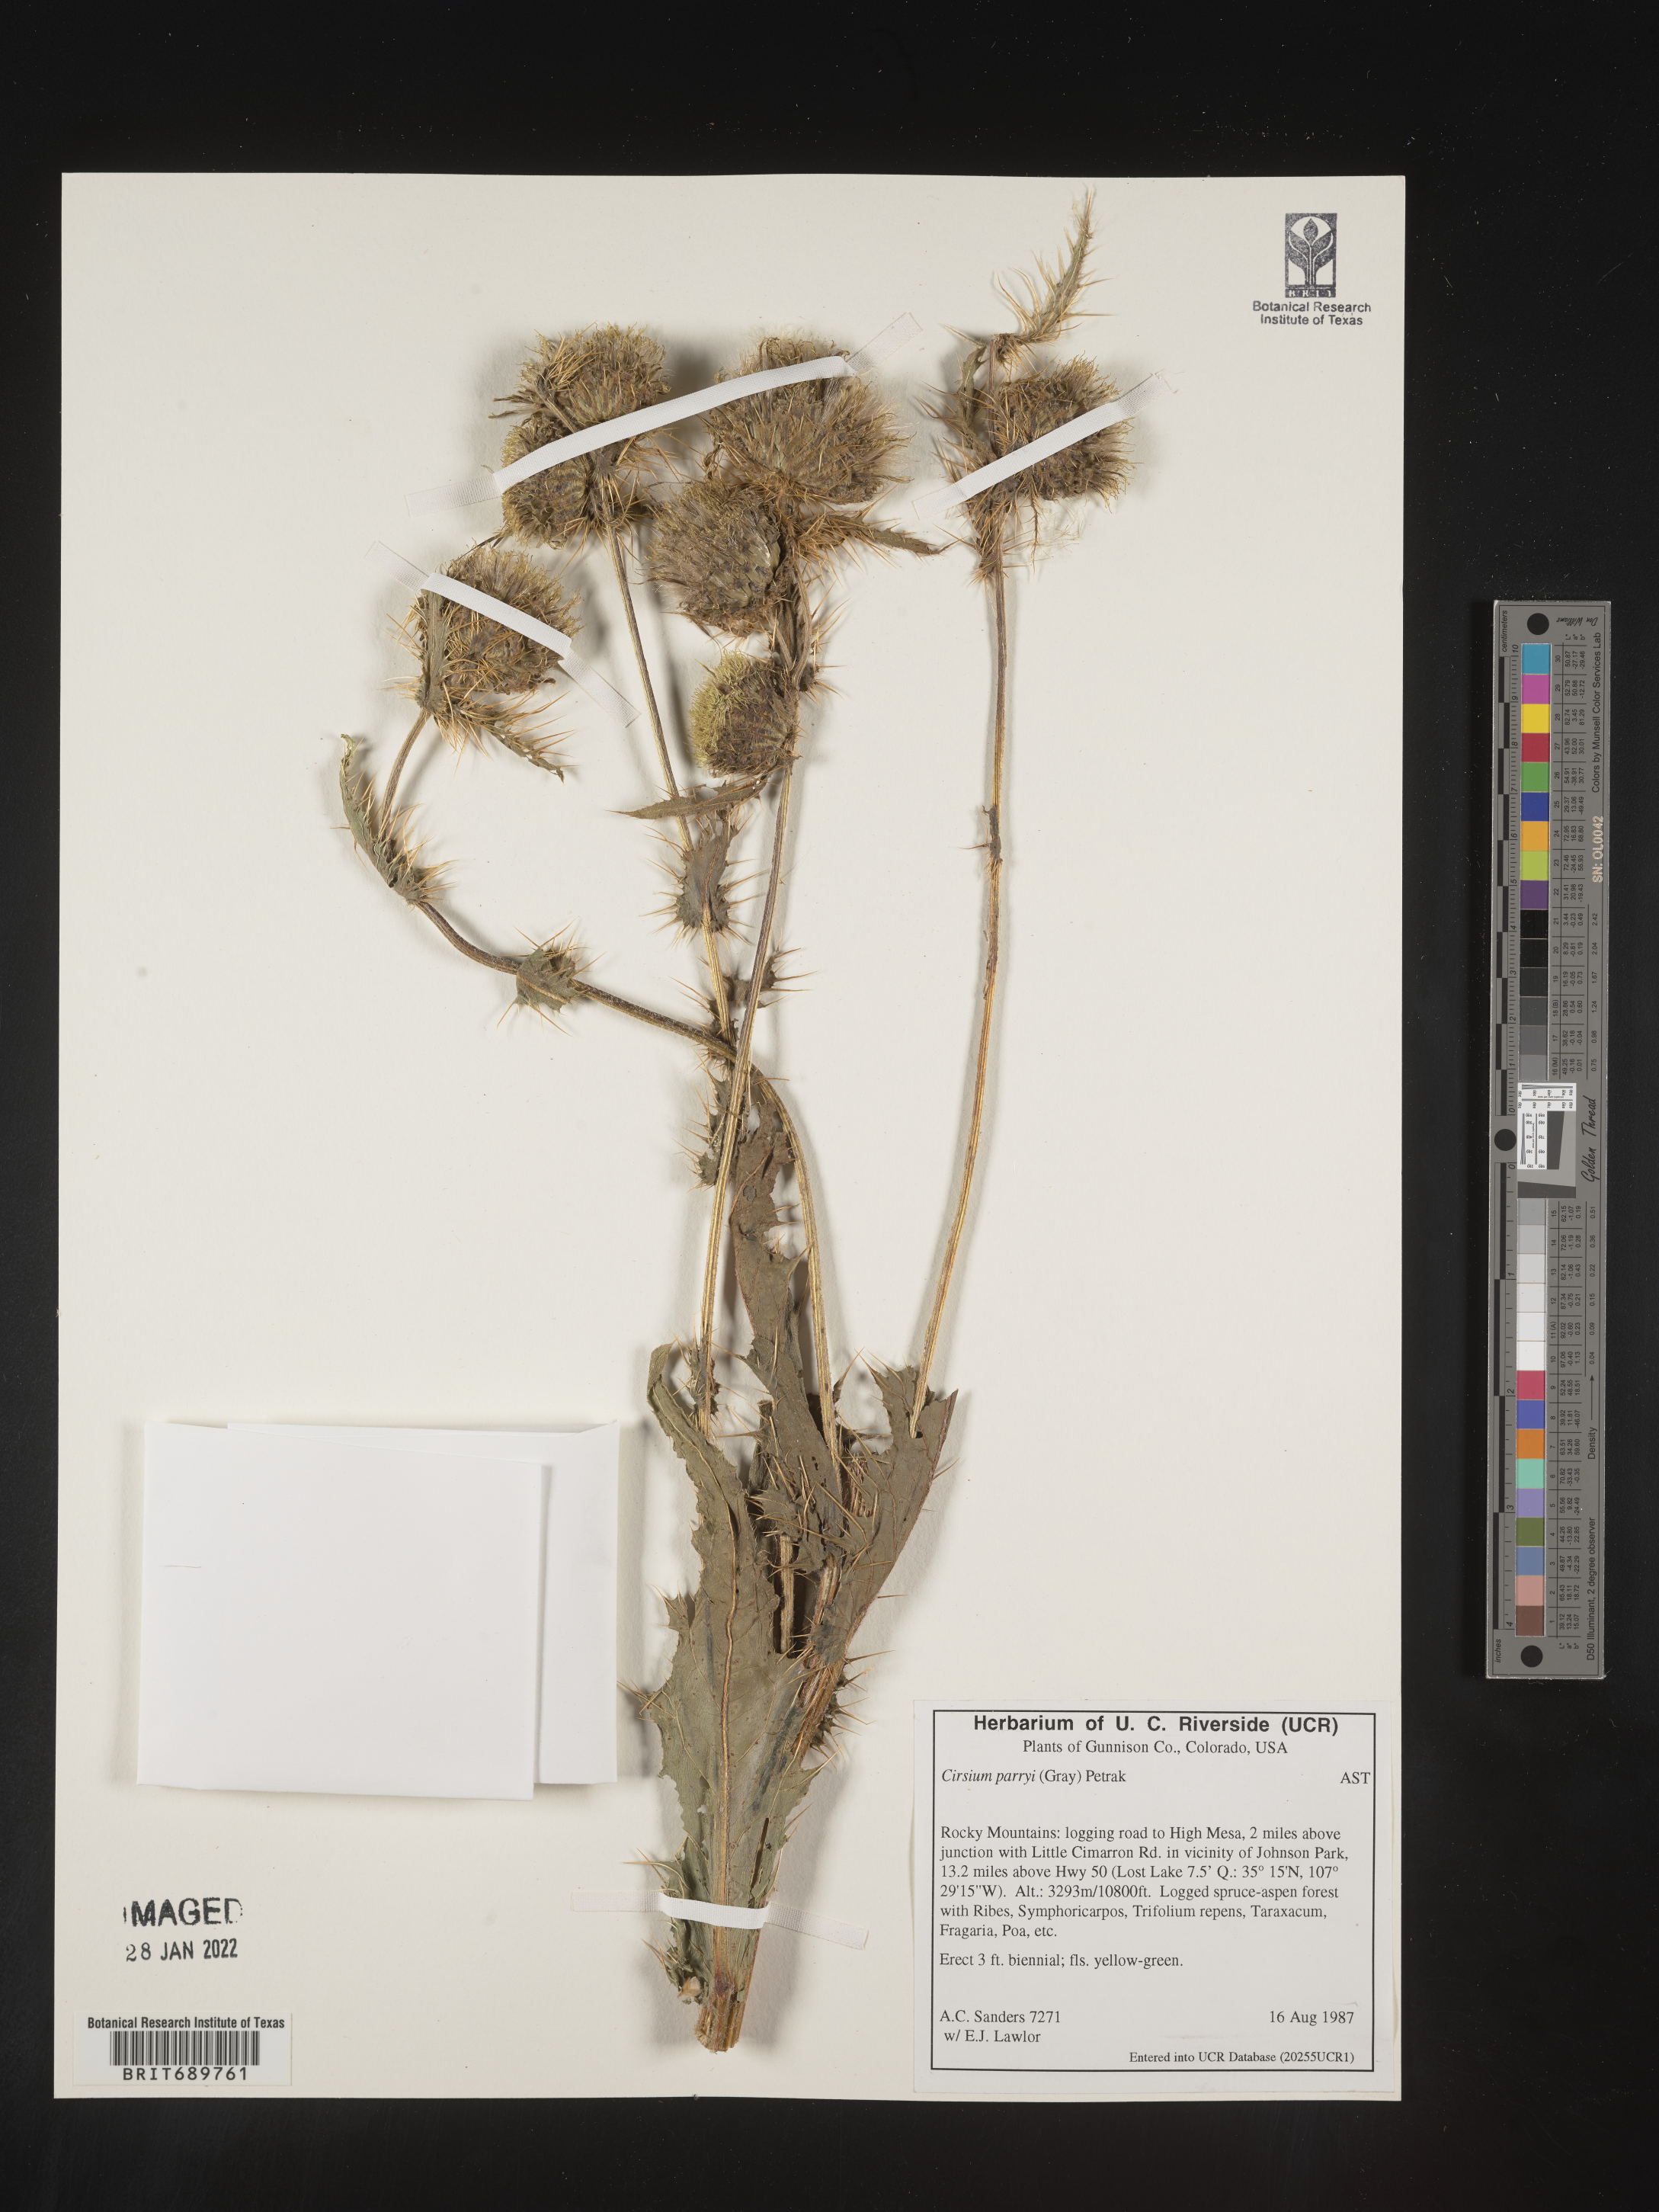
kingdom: Plantae
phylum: Tracheophyta
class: Magnoliopsida
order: Asterales
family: Asteraceae
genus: Cirsium
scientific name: Cirsium parryi
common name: Parry's thistle
